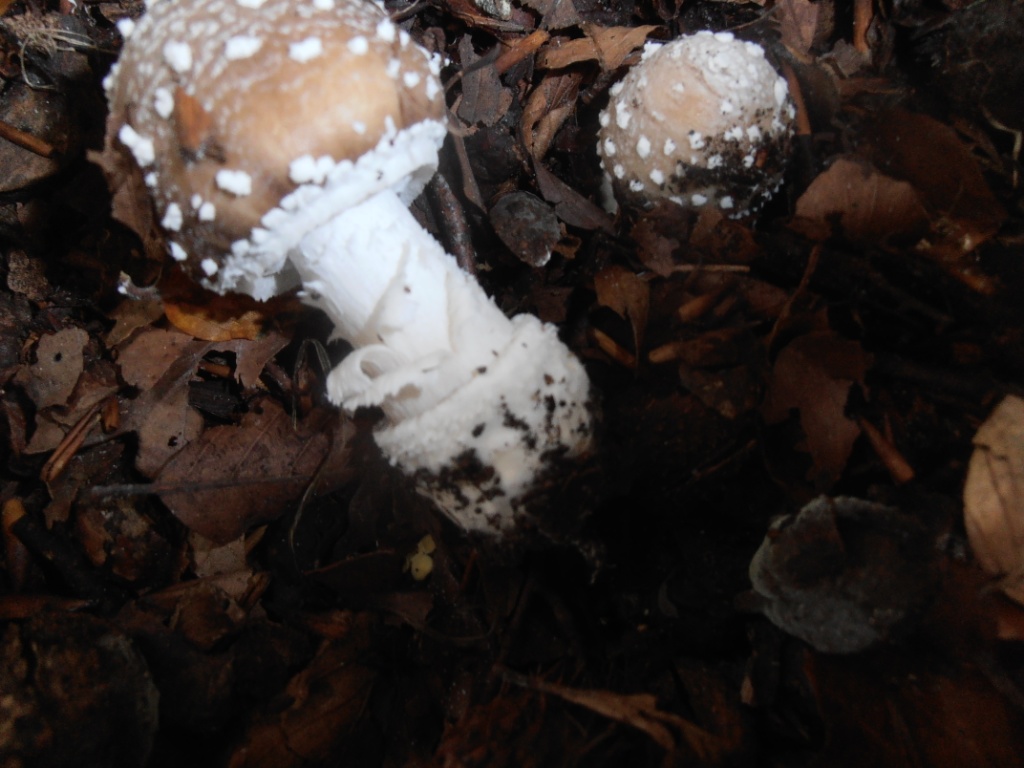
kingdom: Fungi
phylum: Basidiomycota
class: Agaricomycetes
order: Agaricales
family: Amanitaceae
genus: Amanita
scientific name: Amanita pantherina
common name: panter-fluesvamp
